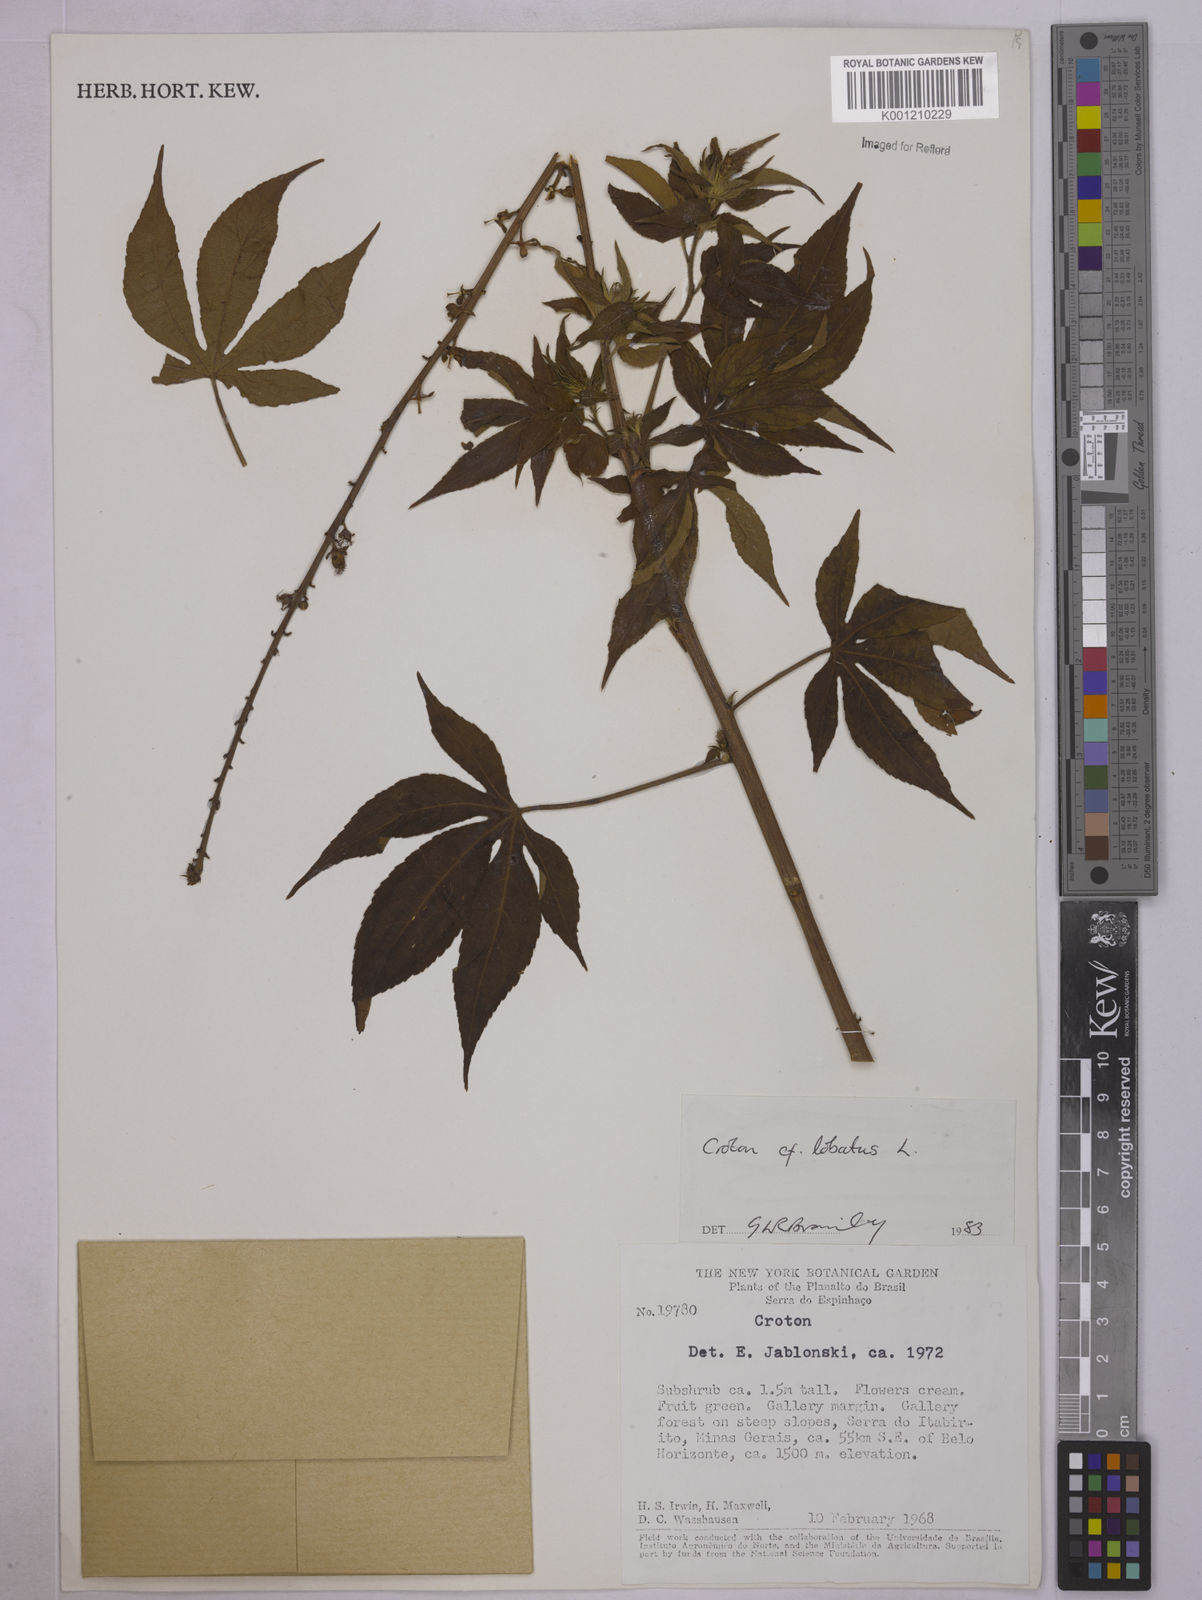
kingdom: Plantae
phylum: Tracheophyta
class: Magnoliopsida
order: Malpighiales
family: Euphorbiaceae
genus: Astraea
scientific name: Astraea lobata
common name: Lobed croton
